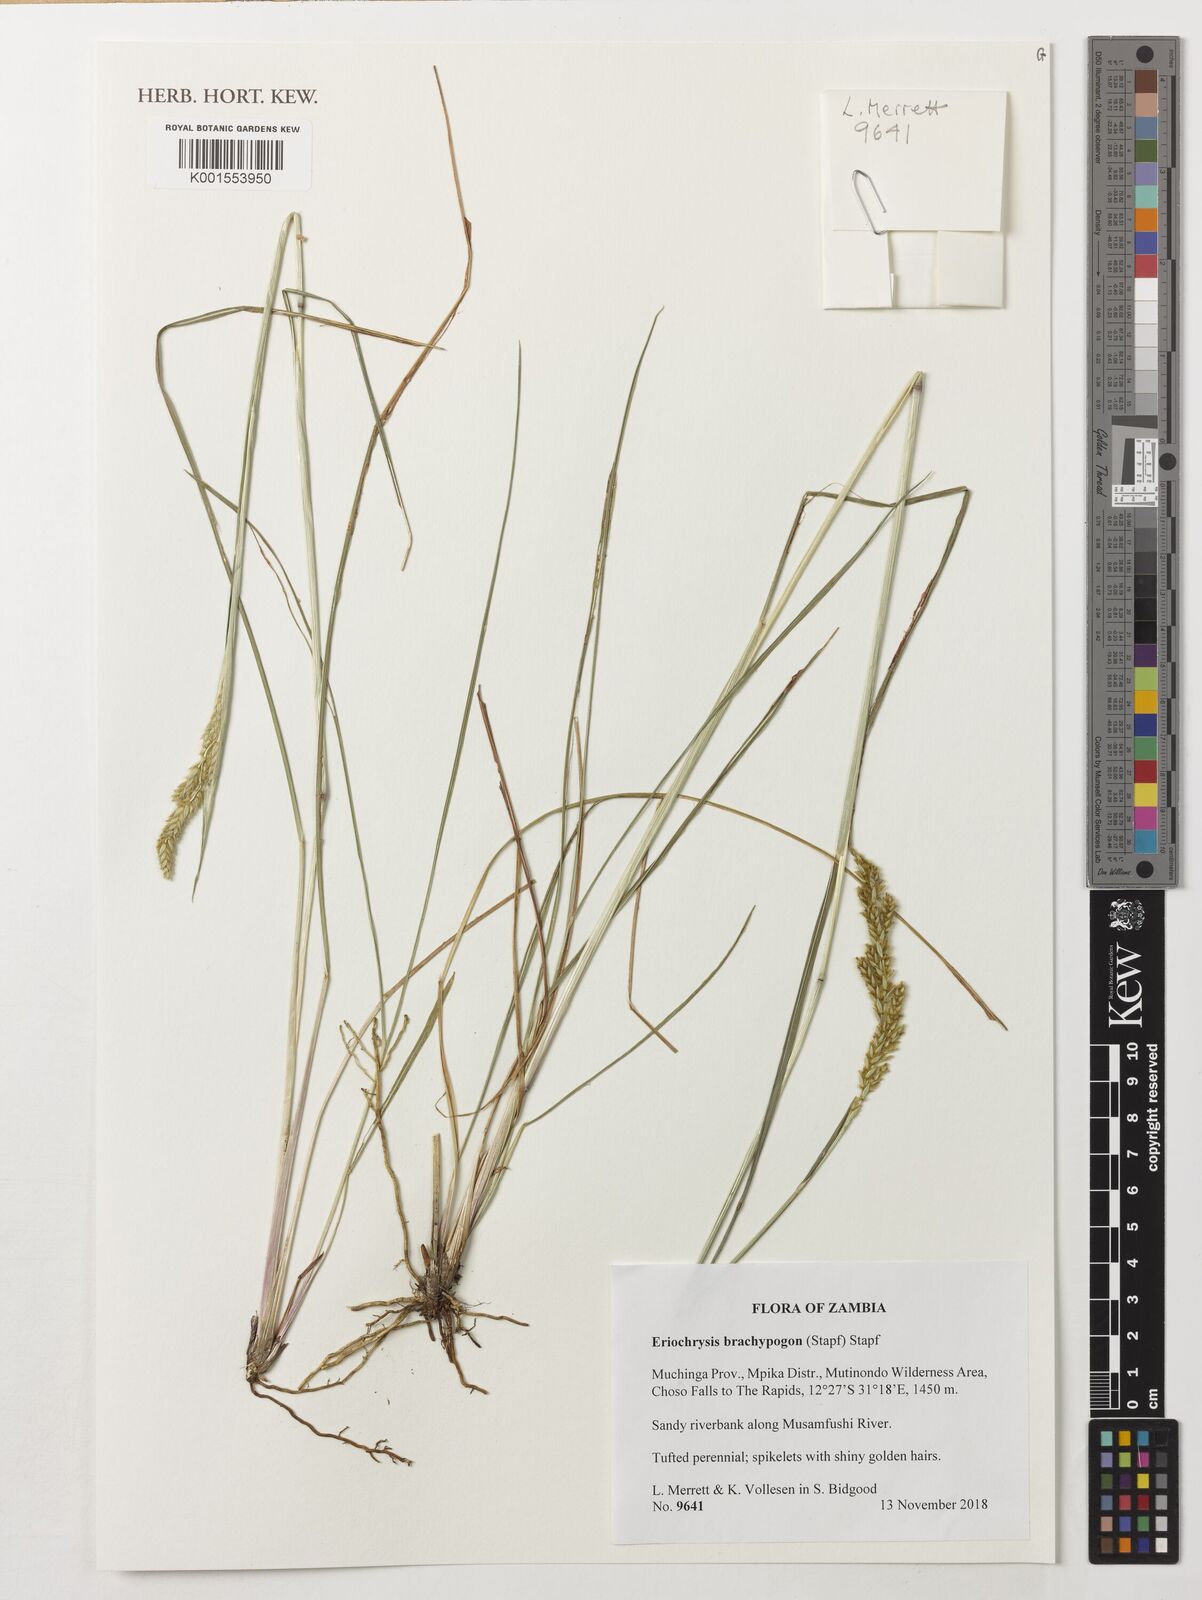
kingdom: Plantae
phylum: Tracheophyta
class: Liliopsida
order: Poales
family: Poaceae
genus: Eriochrysis
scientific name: Eriochrysis brachypogon
